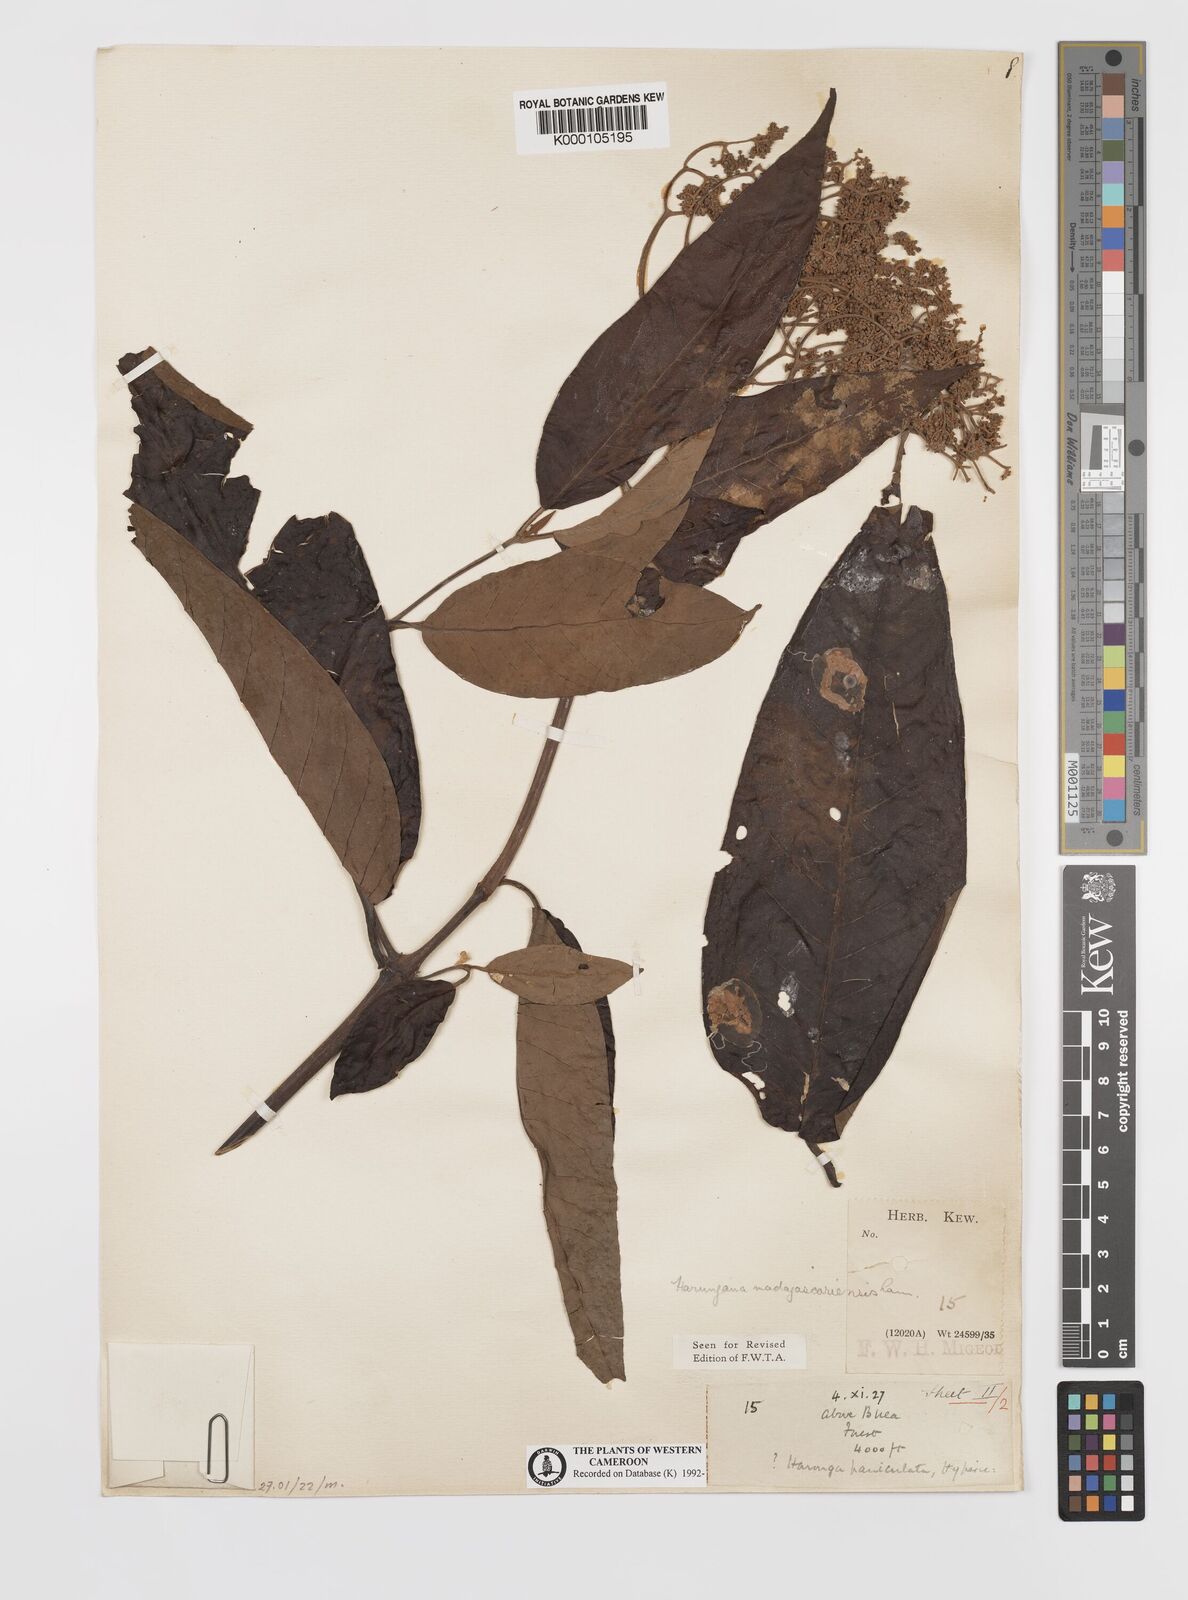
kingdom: Plantae
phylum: Tracheophyta
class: Magnoliopsida
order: Malpighiales
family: Hypericaceae
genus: Harungana
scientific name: Harungana madagascariensis
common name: Orange milktree
